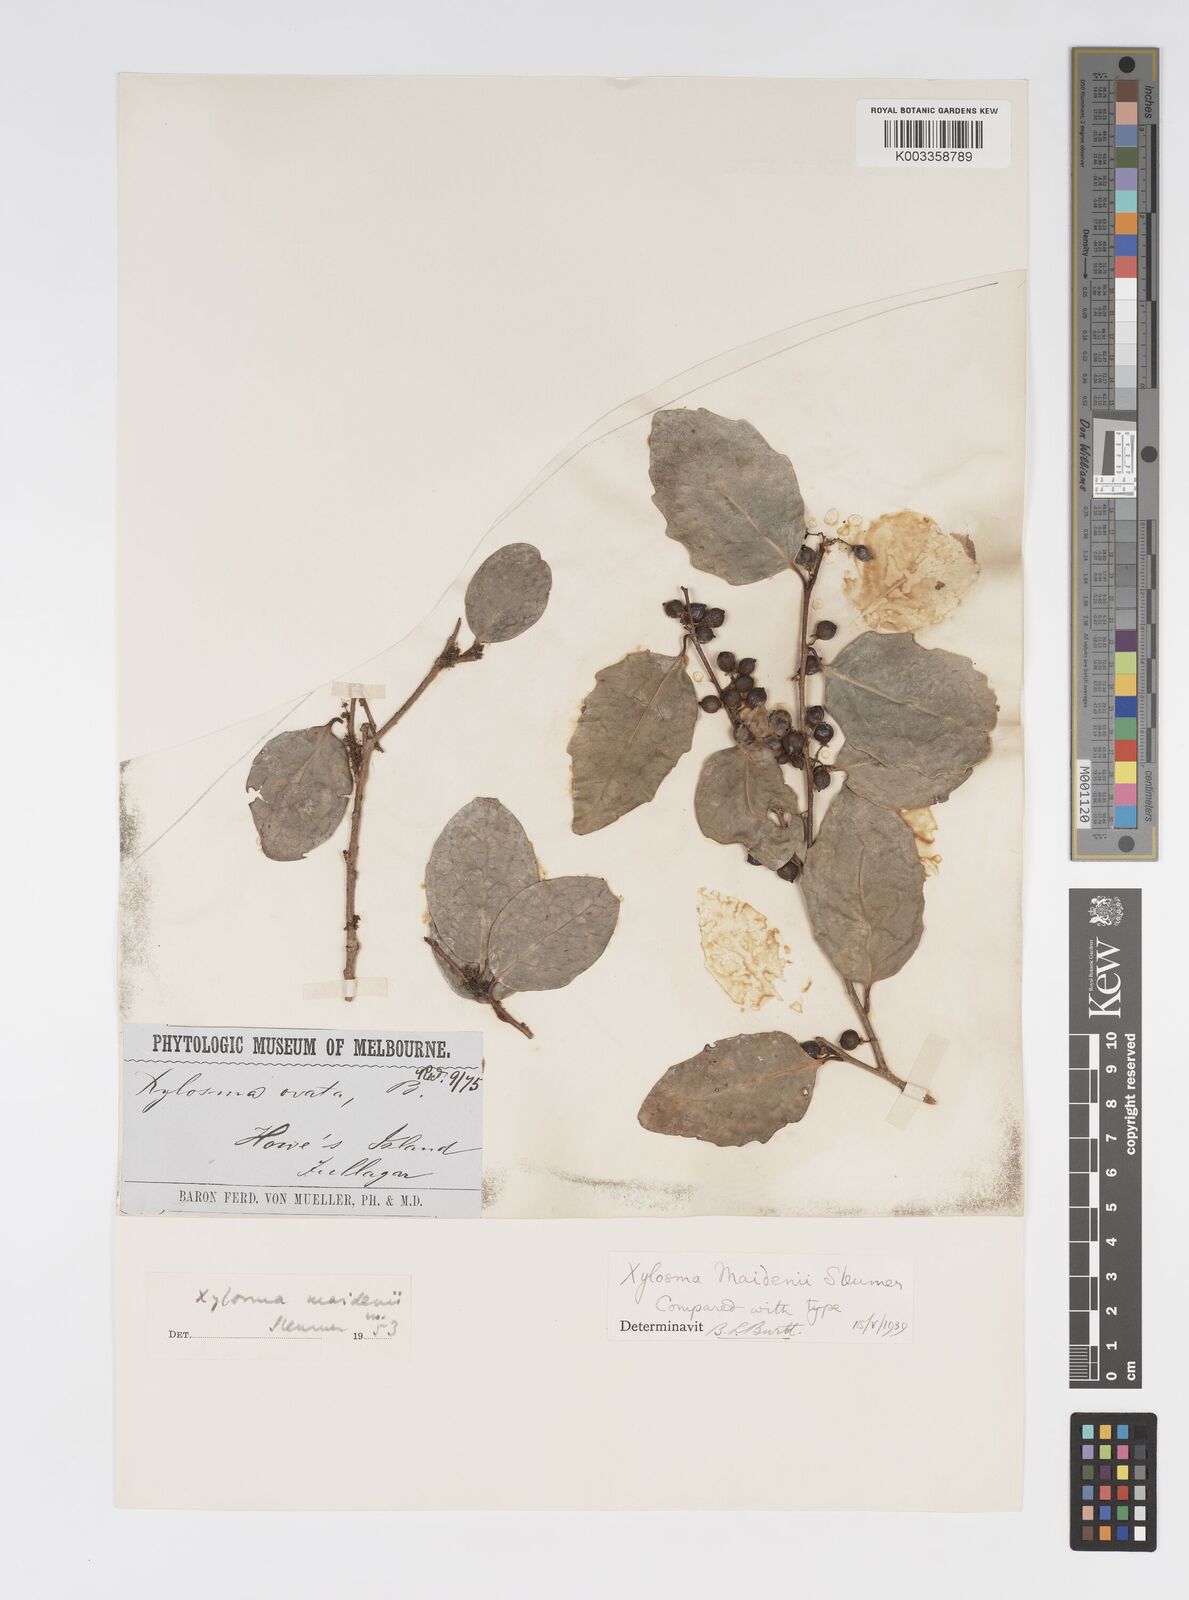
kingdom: Plantae
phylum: Tracheophyta
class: Magnoliopsida
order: Malpighiales
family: Salicaceae
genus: Xylosma
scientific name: Xylosma maidenii
